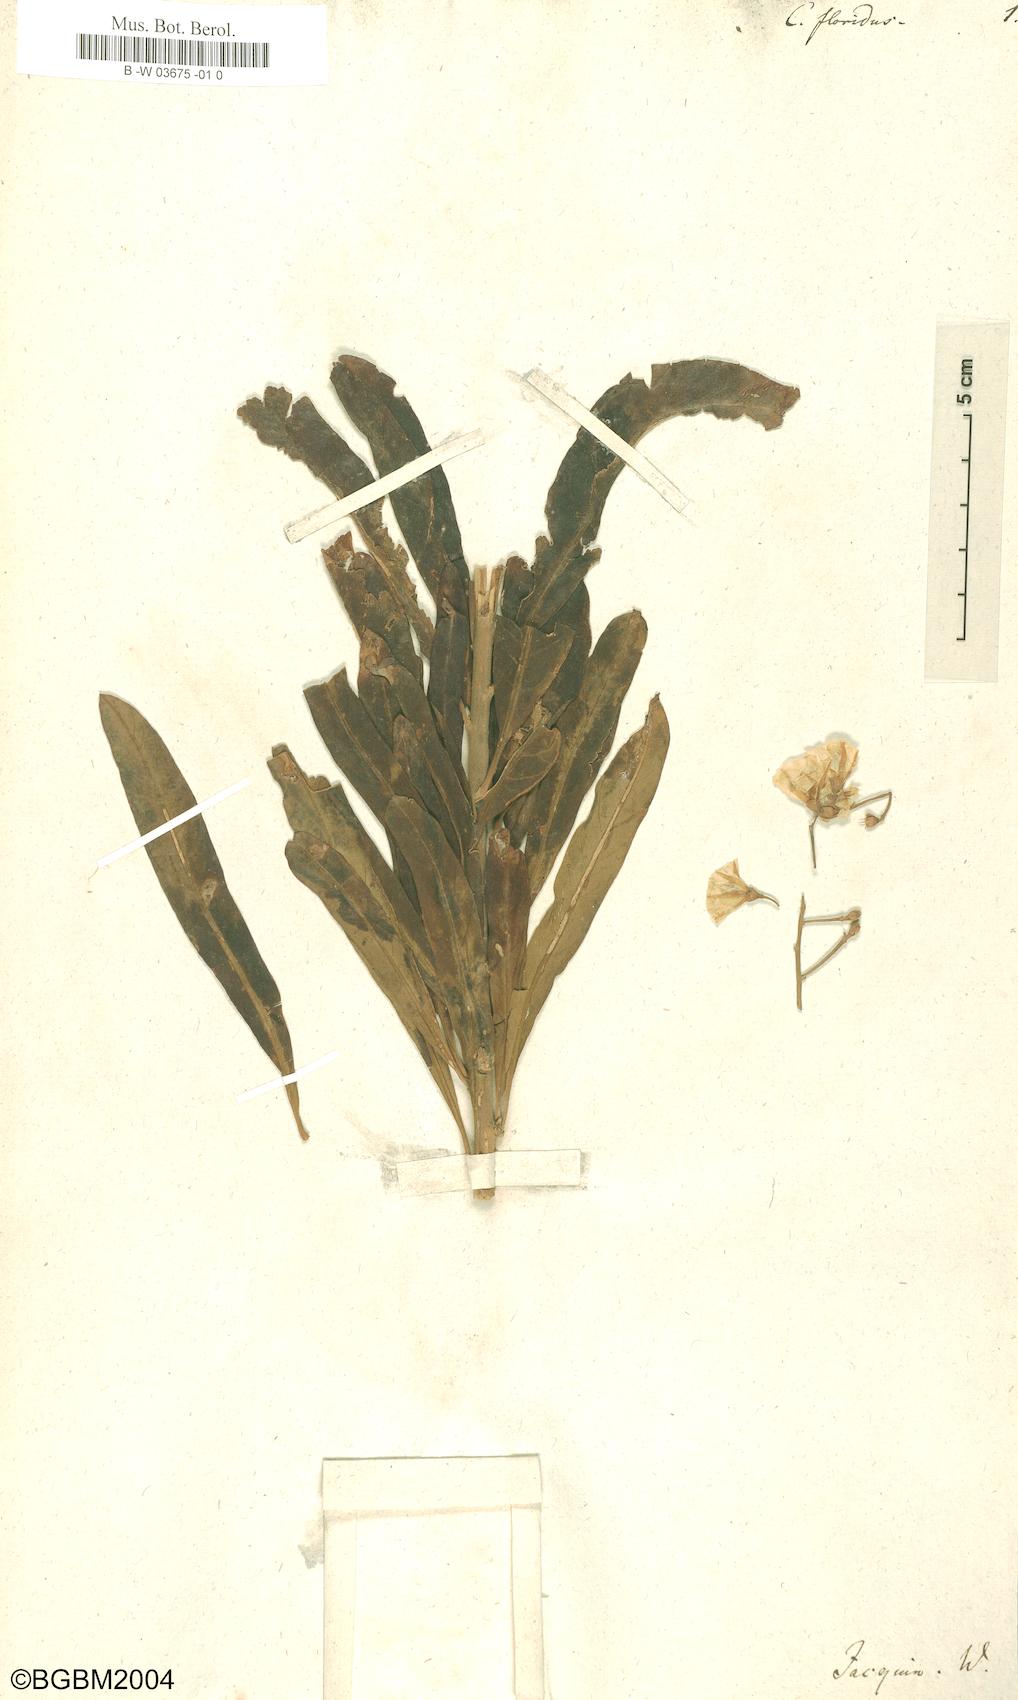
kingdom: Plantae
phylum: Tracheophyta
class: Magnoliopsida
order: Solanales
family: Convolvulaceae
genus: Convolvulus
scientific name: Convolvulus floridus
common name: Guadil
